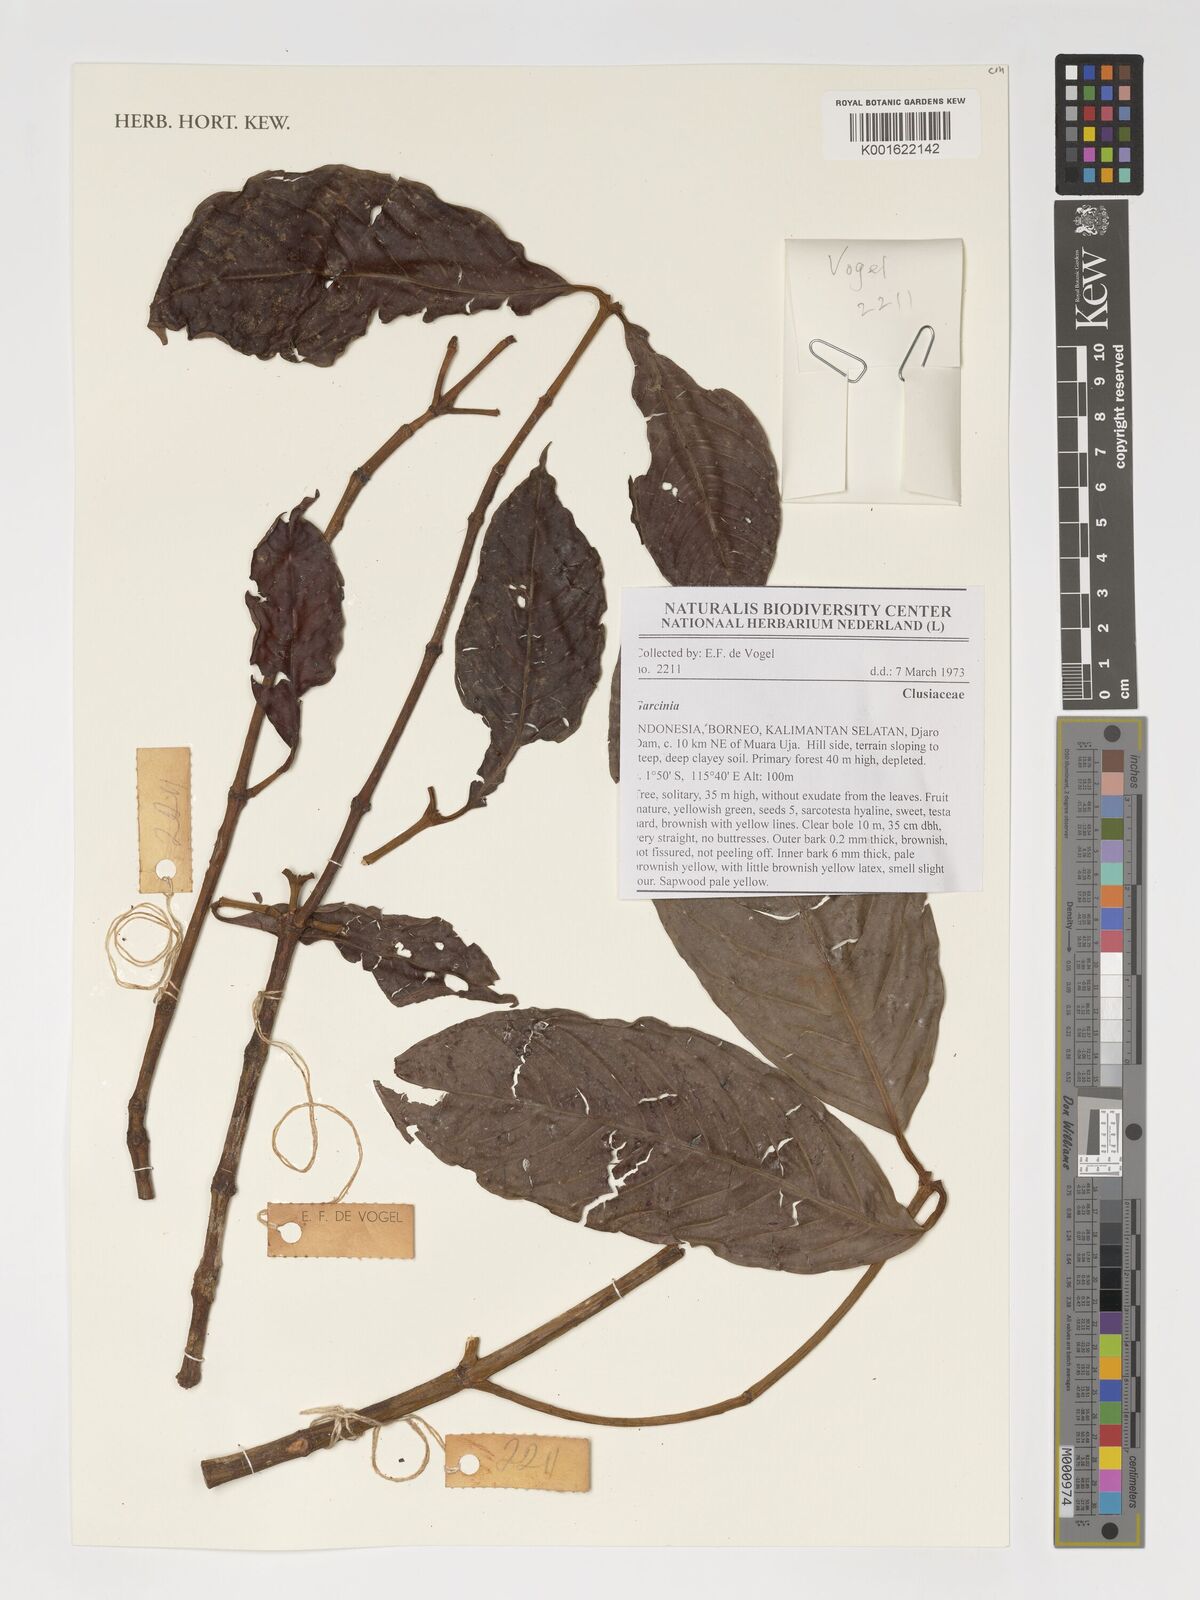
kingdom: Plantae
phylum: Tracheophyta
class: Magnoliopsida
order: Malpighiales
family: Clusiaceae
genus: Garcinia
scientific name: Garcinia
